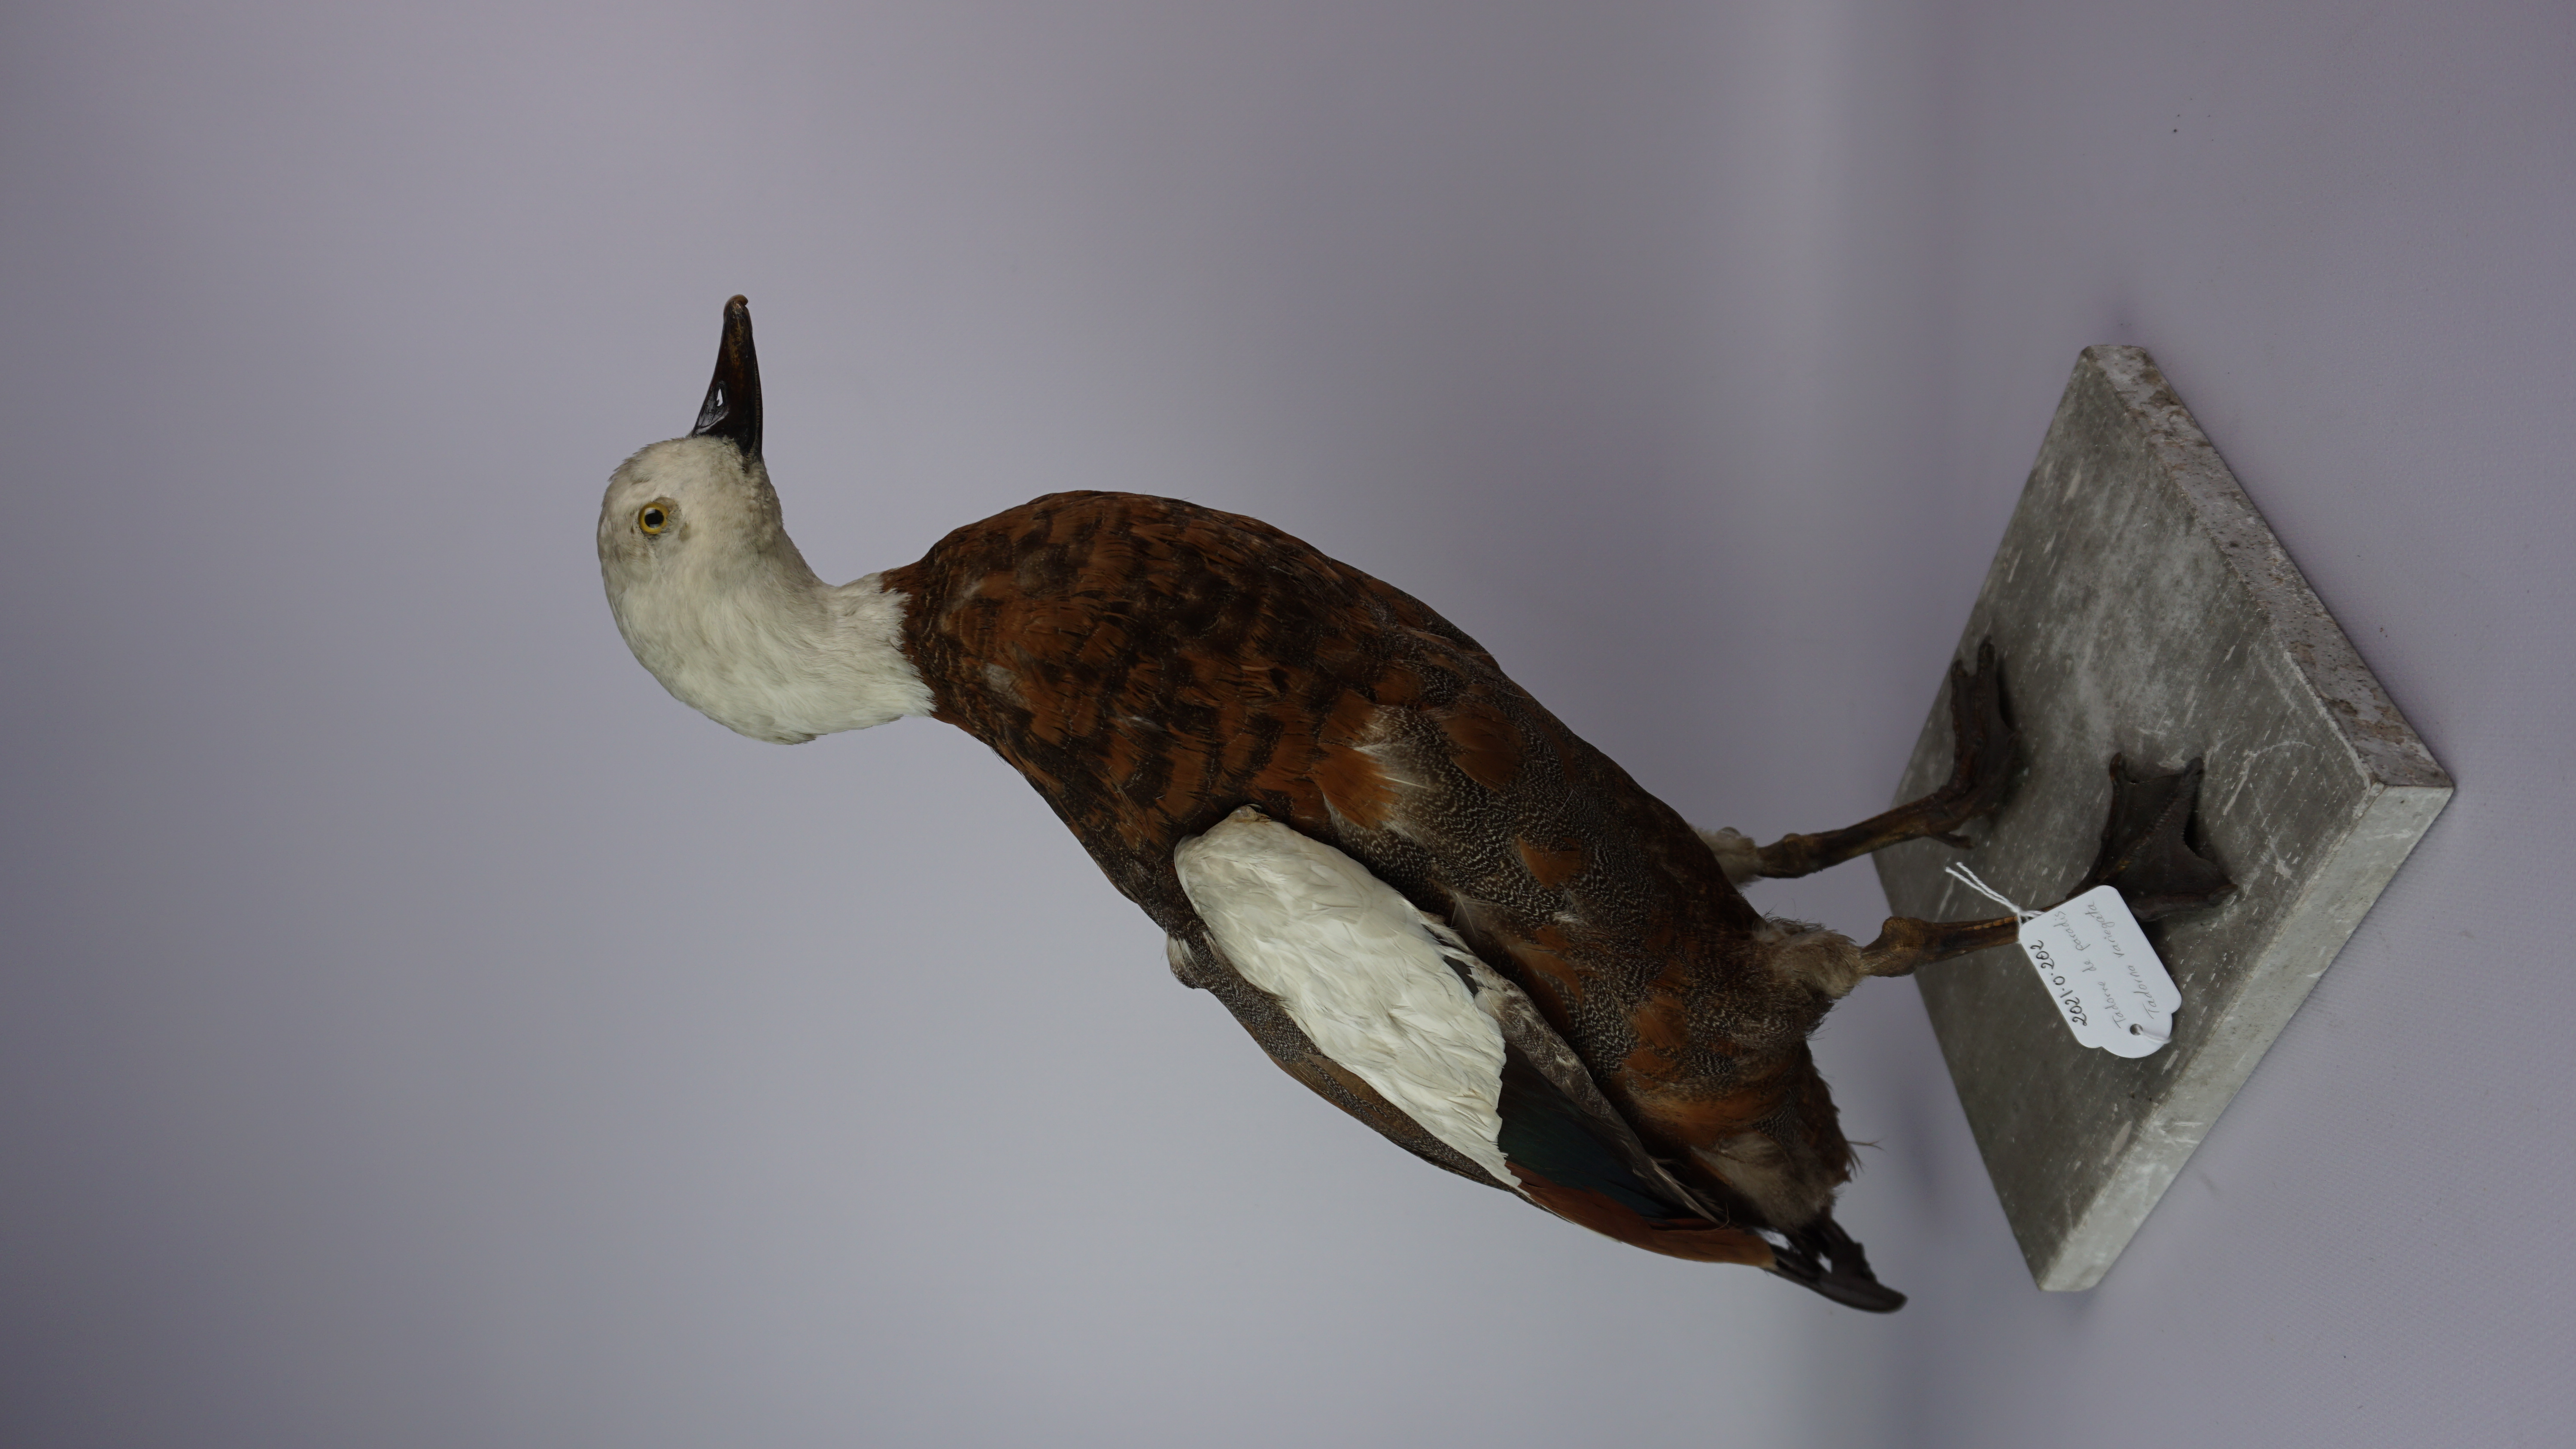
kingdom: Animalia
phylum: Chordata
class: Aves
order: Anseriformes
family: Anatidae
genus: Tadorna
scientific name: Tadorna variegata
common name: Paradise shelduck
